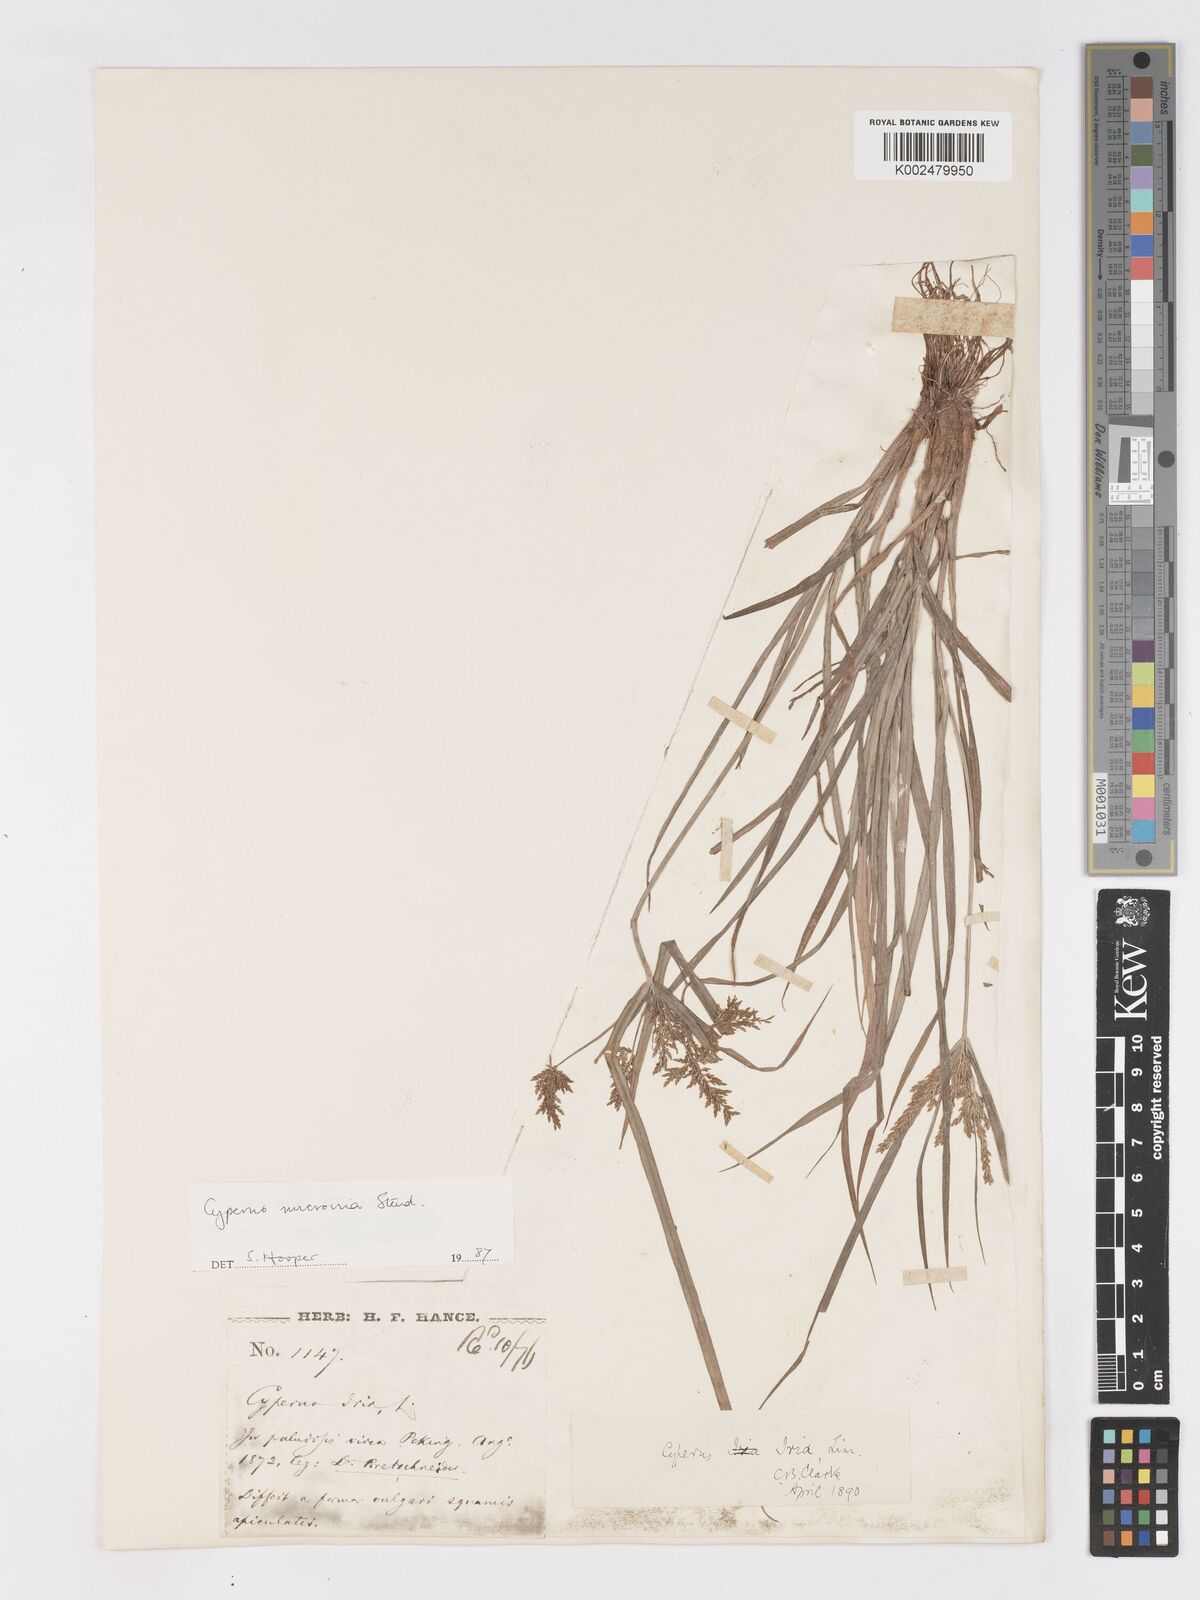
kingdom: Plantae
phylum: Tracheophyta
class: Liliopsida
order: Poales
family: Cyperaceae
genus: Cyperus
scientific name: Cyperus microiria
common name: Asian flatsedge
